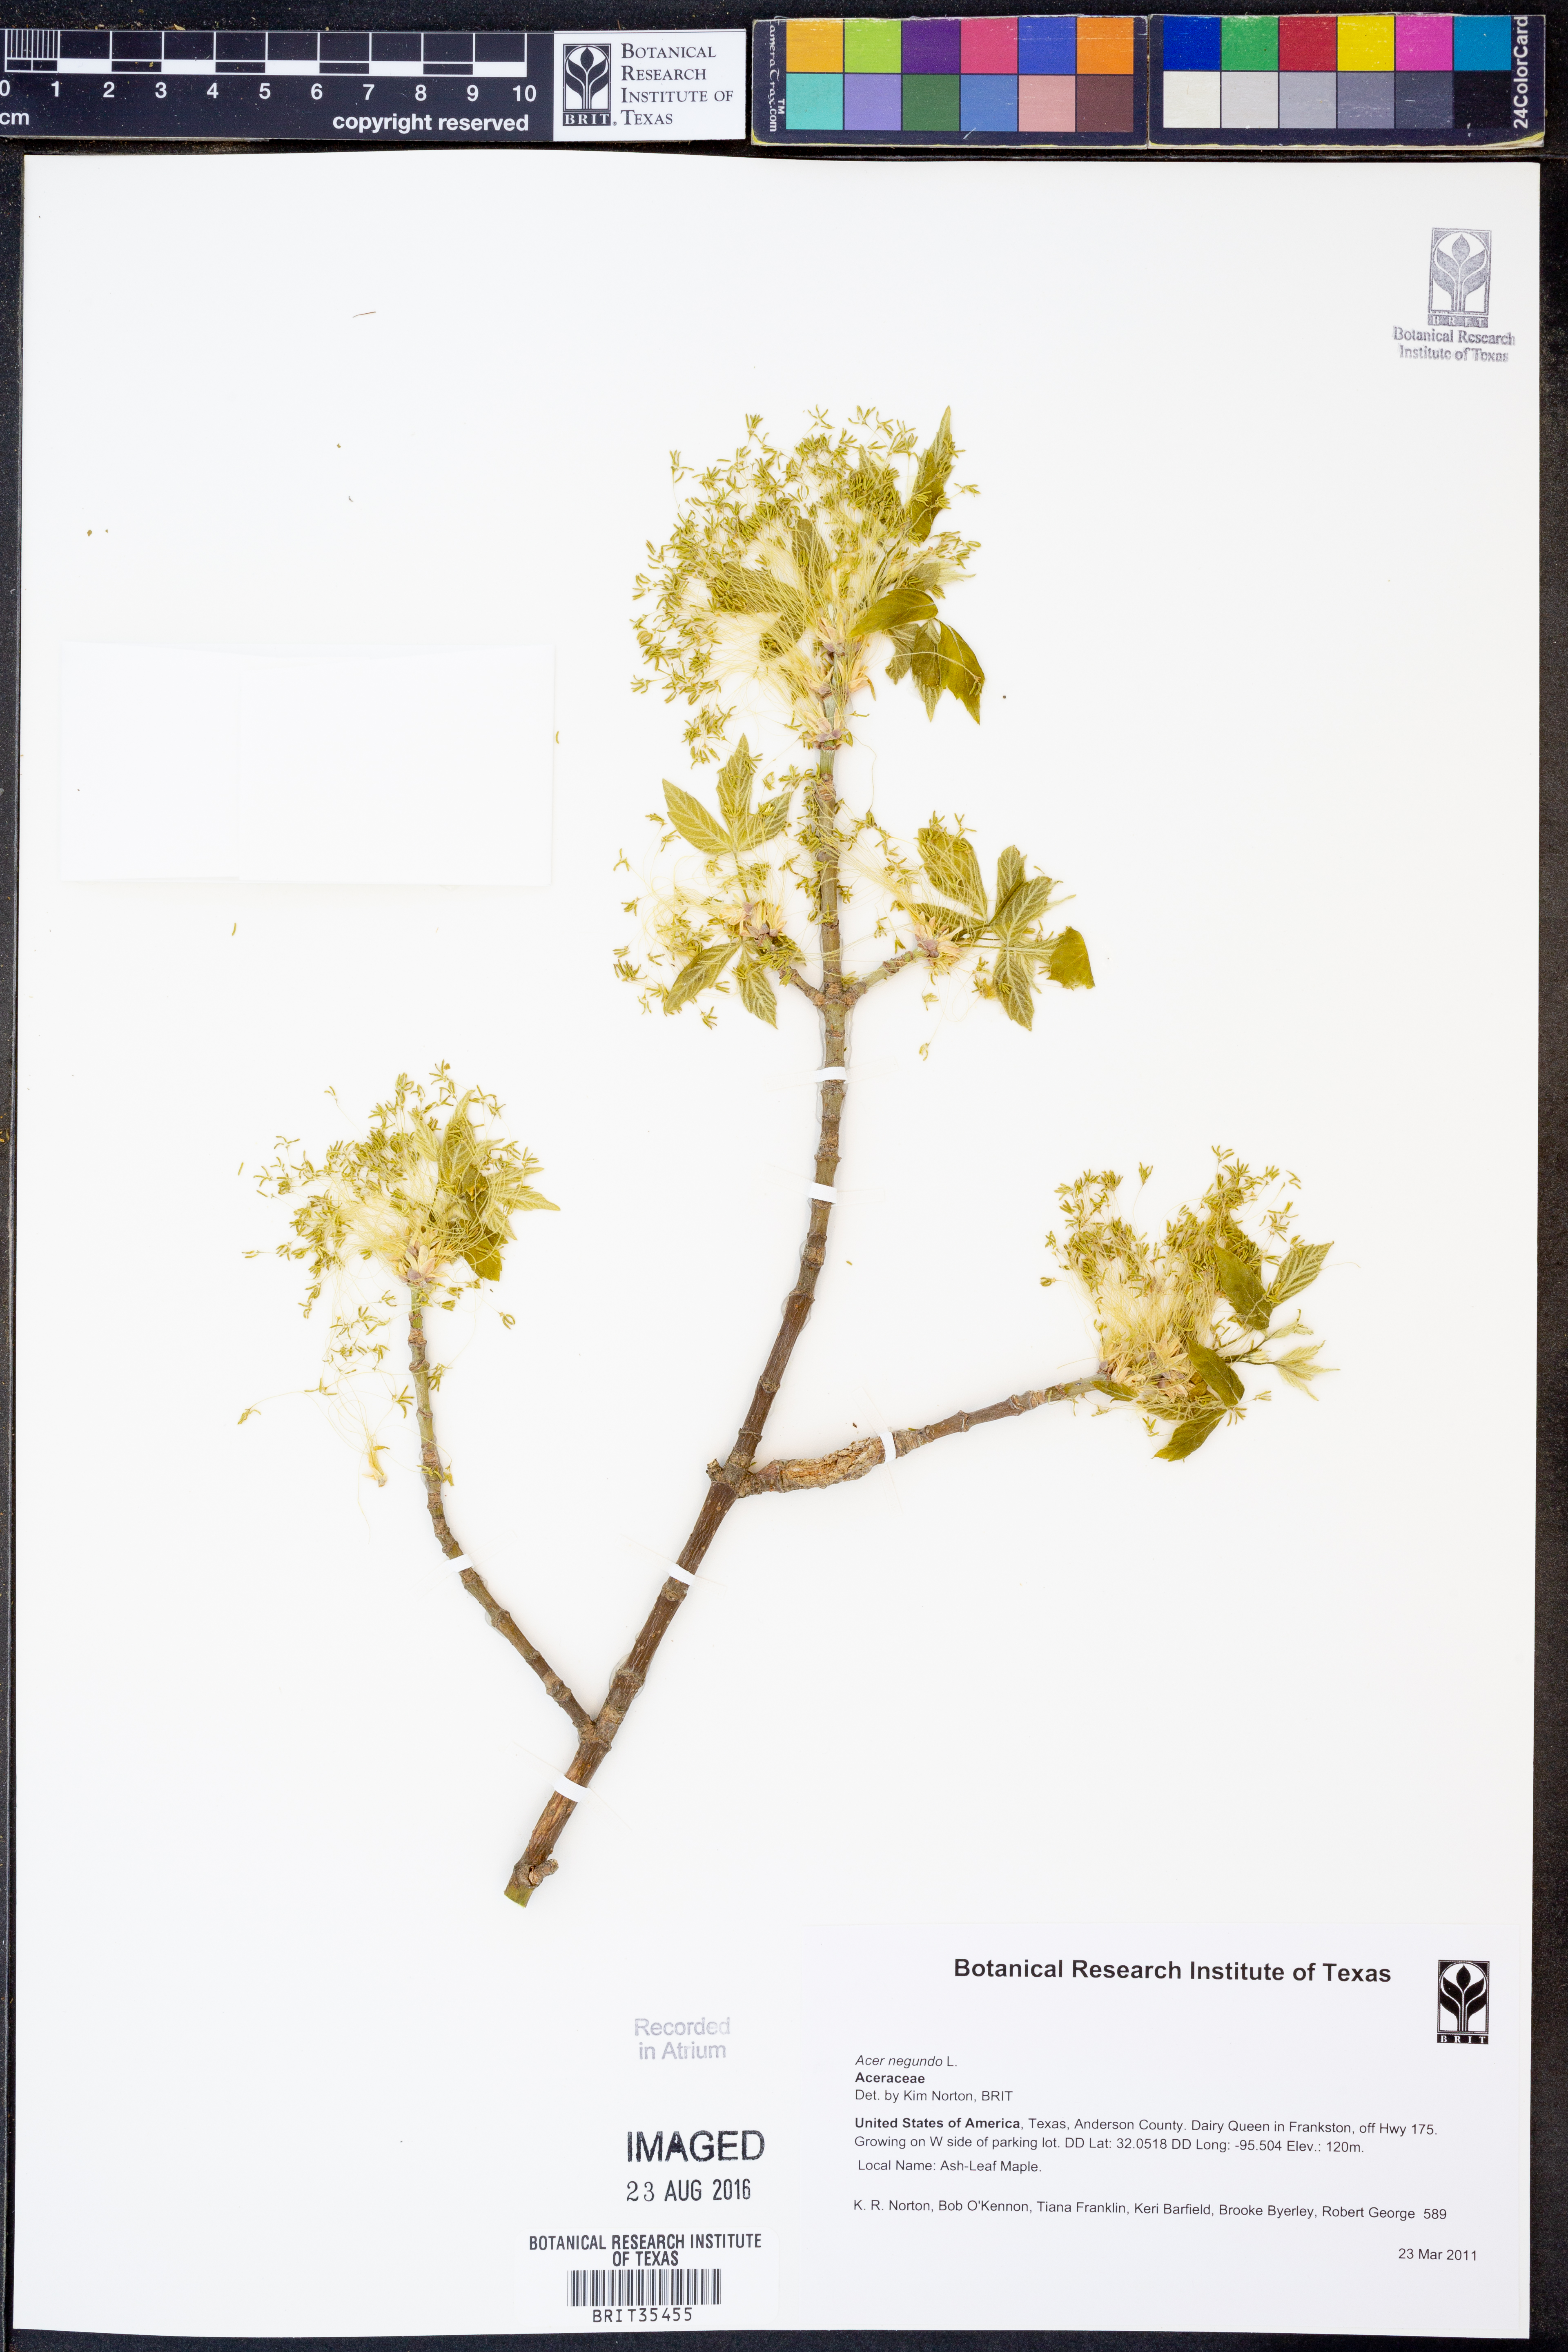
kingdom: Plantae
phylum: Tracheophyta
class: Magnoliopsida
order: Sapindales
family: Sapindaceae
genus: Acer
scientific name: Acer negundo
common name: Ashleaf maple
